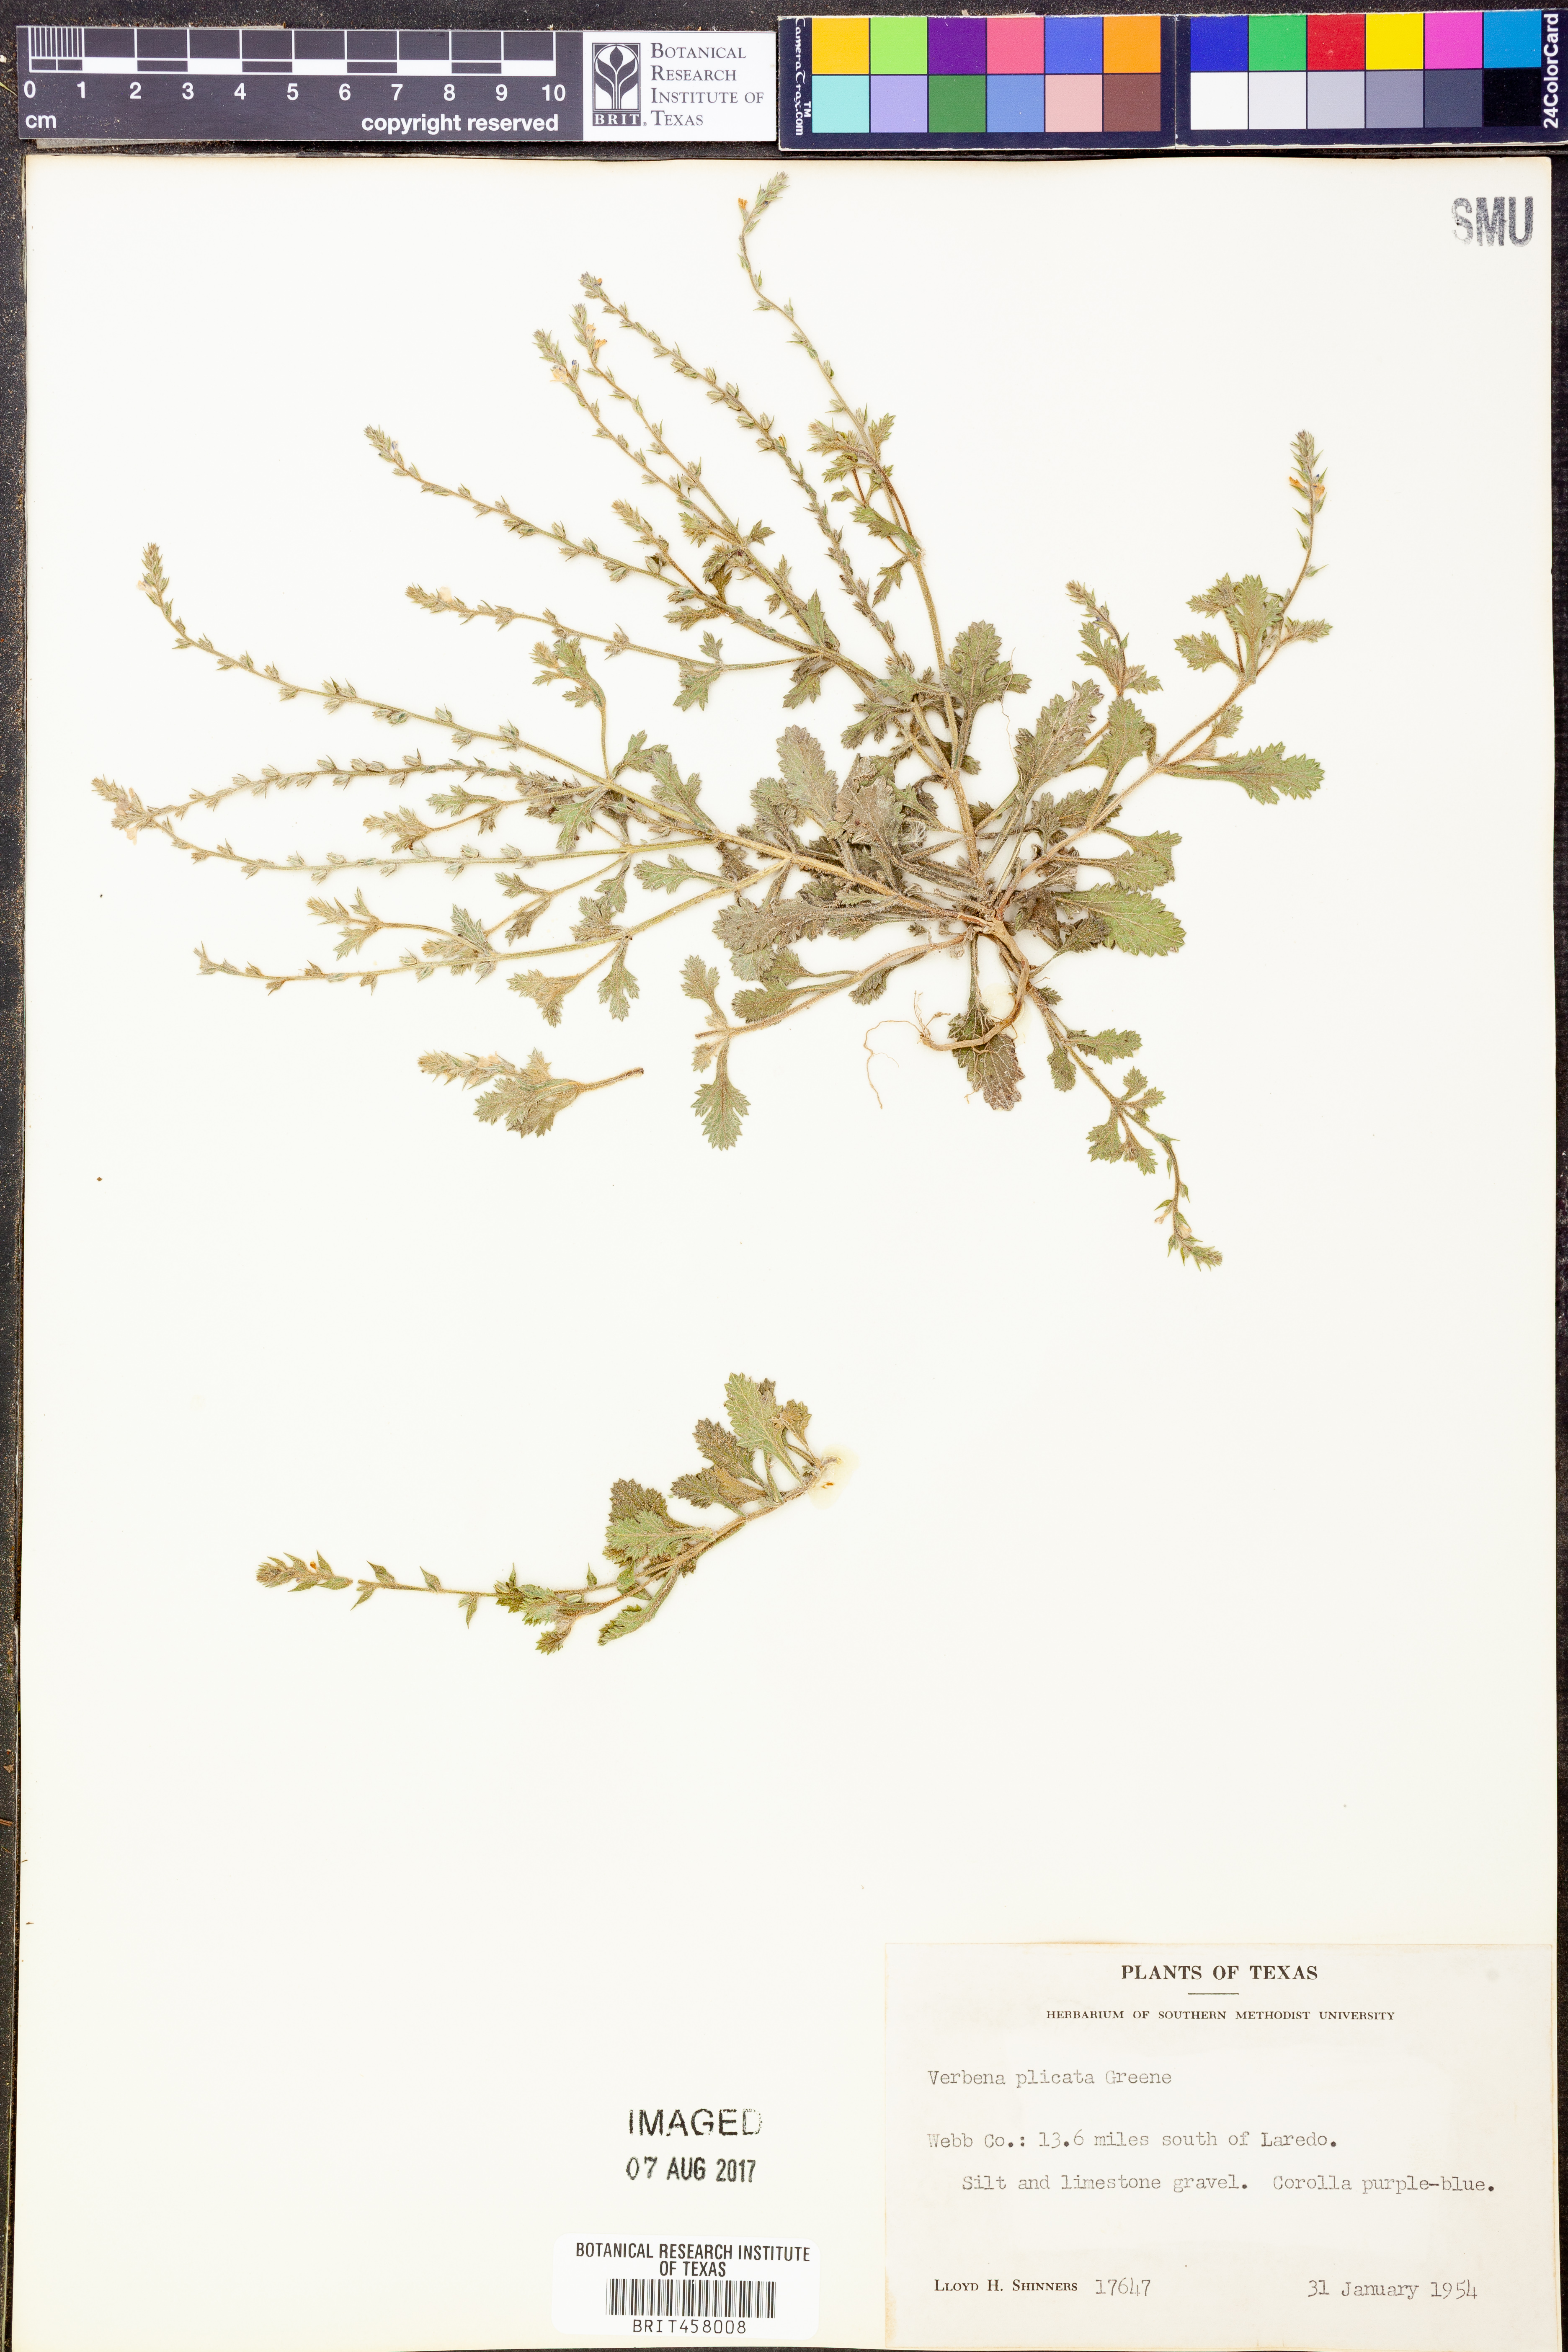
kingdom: Plantae
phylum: Tracheophyta
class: Magnoliopsida
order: Lamiales
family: Verbenaceae
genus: Verbena
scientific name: Verbena plicata
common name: Fan-leaf vervain
